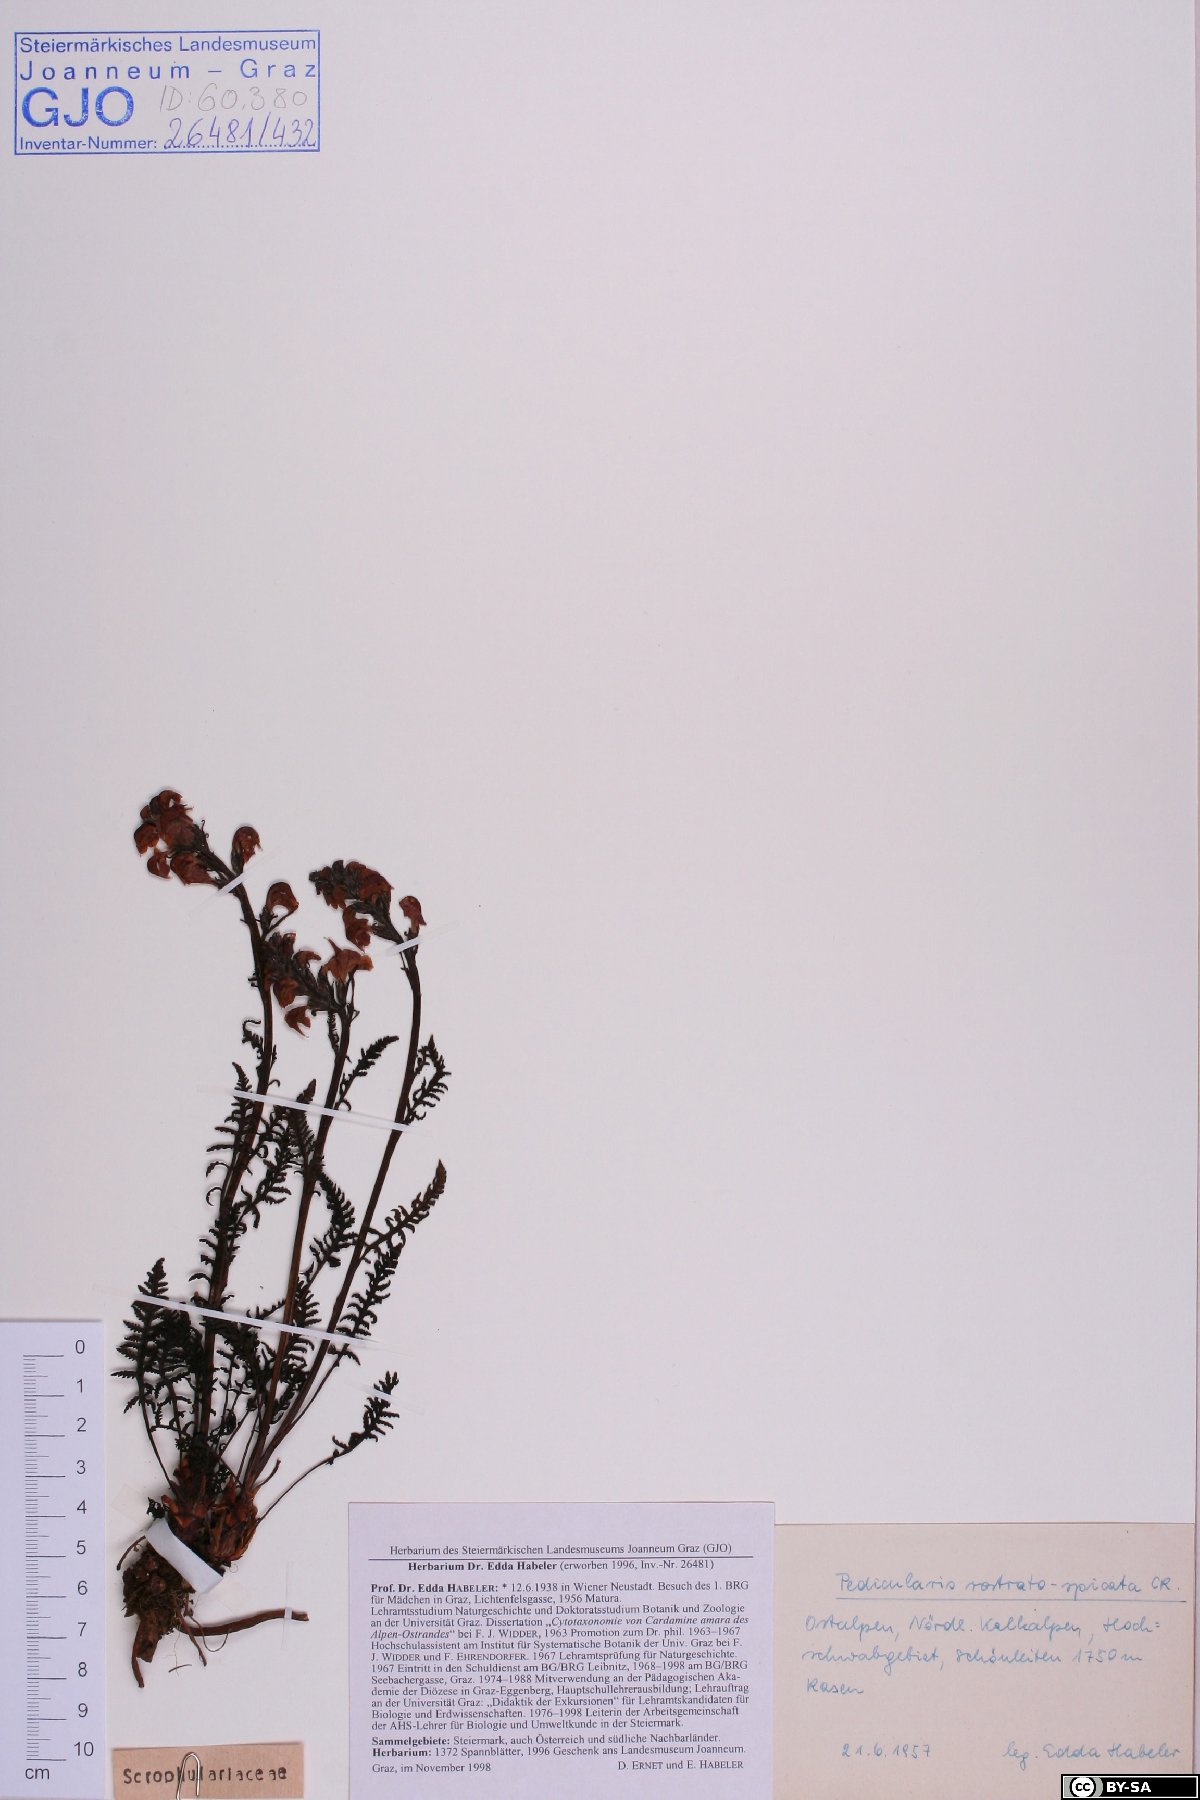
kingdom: Plantae
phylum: Tracheophyta
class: Magnoliopsida
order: Lamiales
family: Orobanchaceae
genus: Pedicularis
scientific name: Pedicularis rostratospicata
